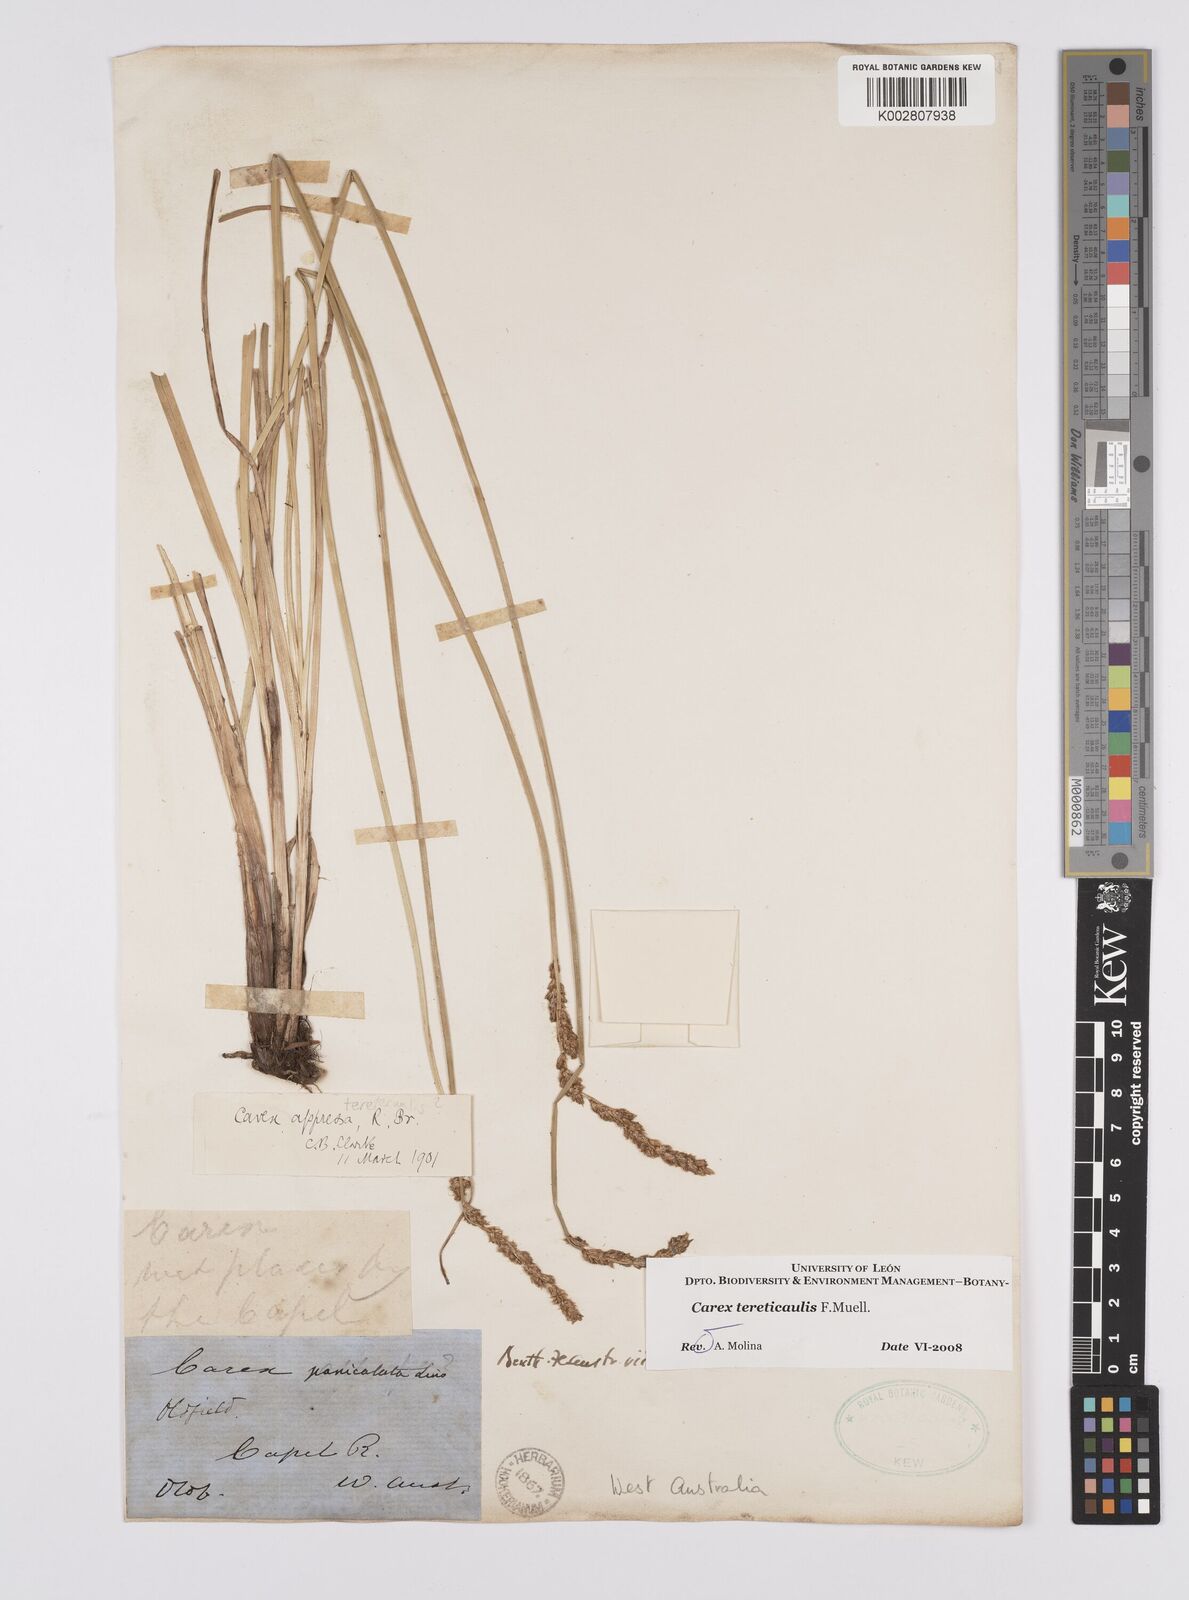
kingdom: Plantae
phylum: Tracheophyta
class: Liliopsida
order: Poales
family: Cyperaceae
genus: Carex
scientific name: Carex tereticaulis
